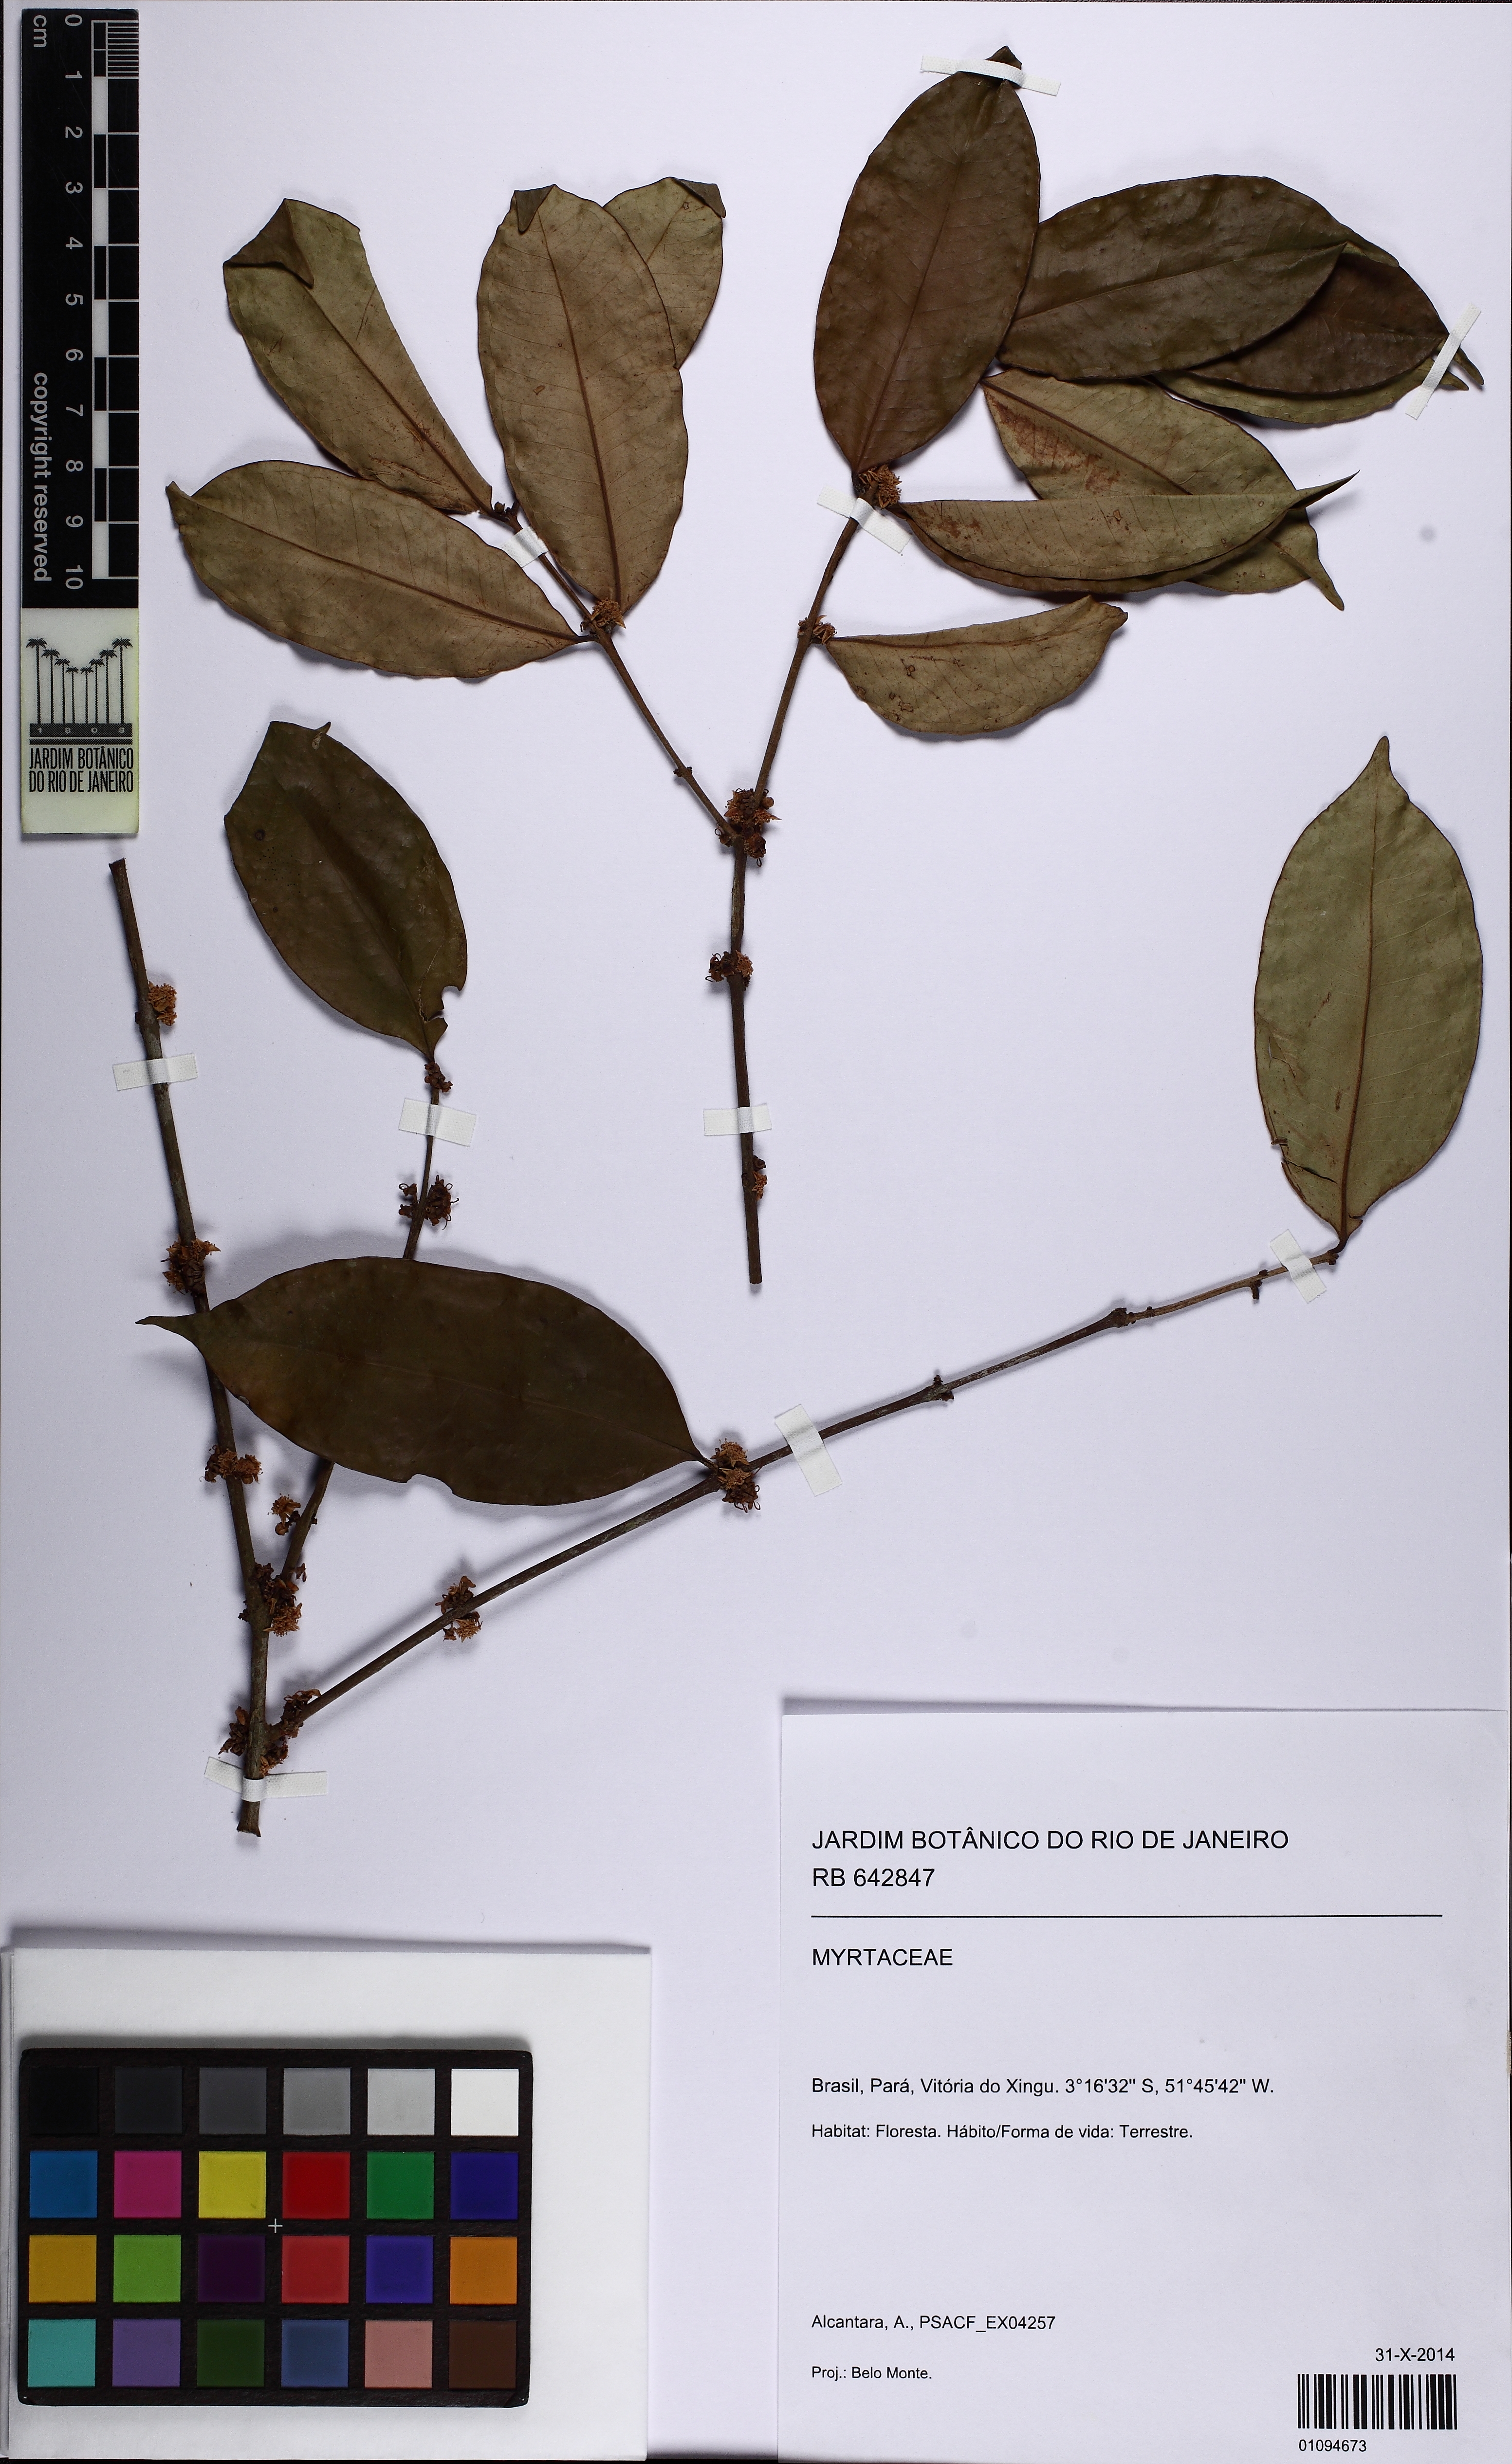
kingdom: Plantae
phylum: Tracheophyta
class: Magnoliopsida
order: Myrtales
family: Myrtaceae
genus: Eugenia
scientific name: Eugenia
